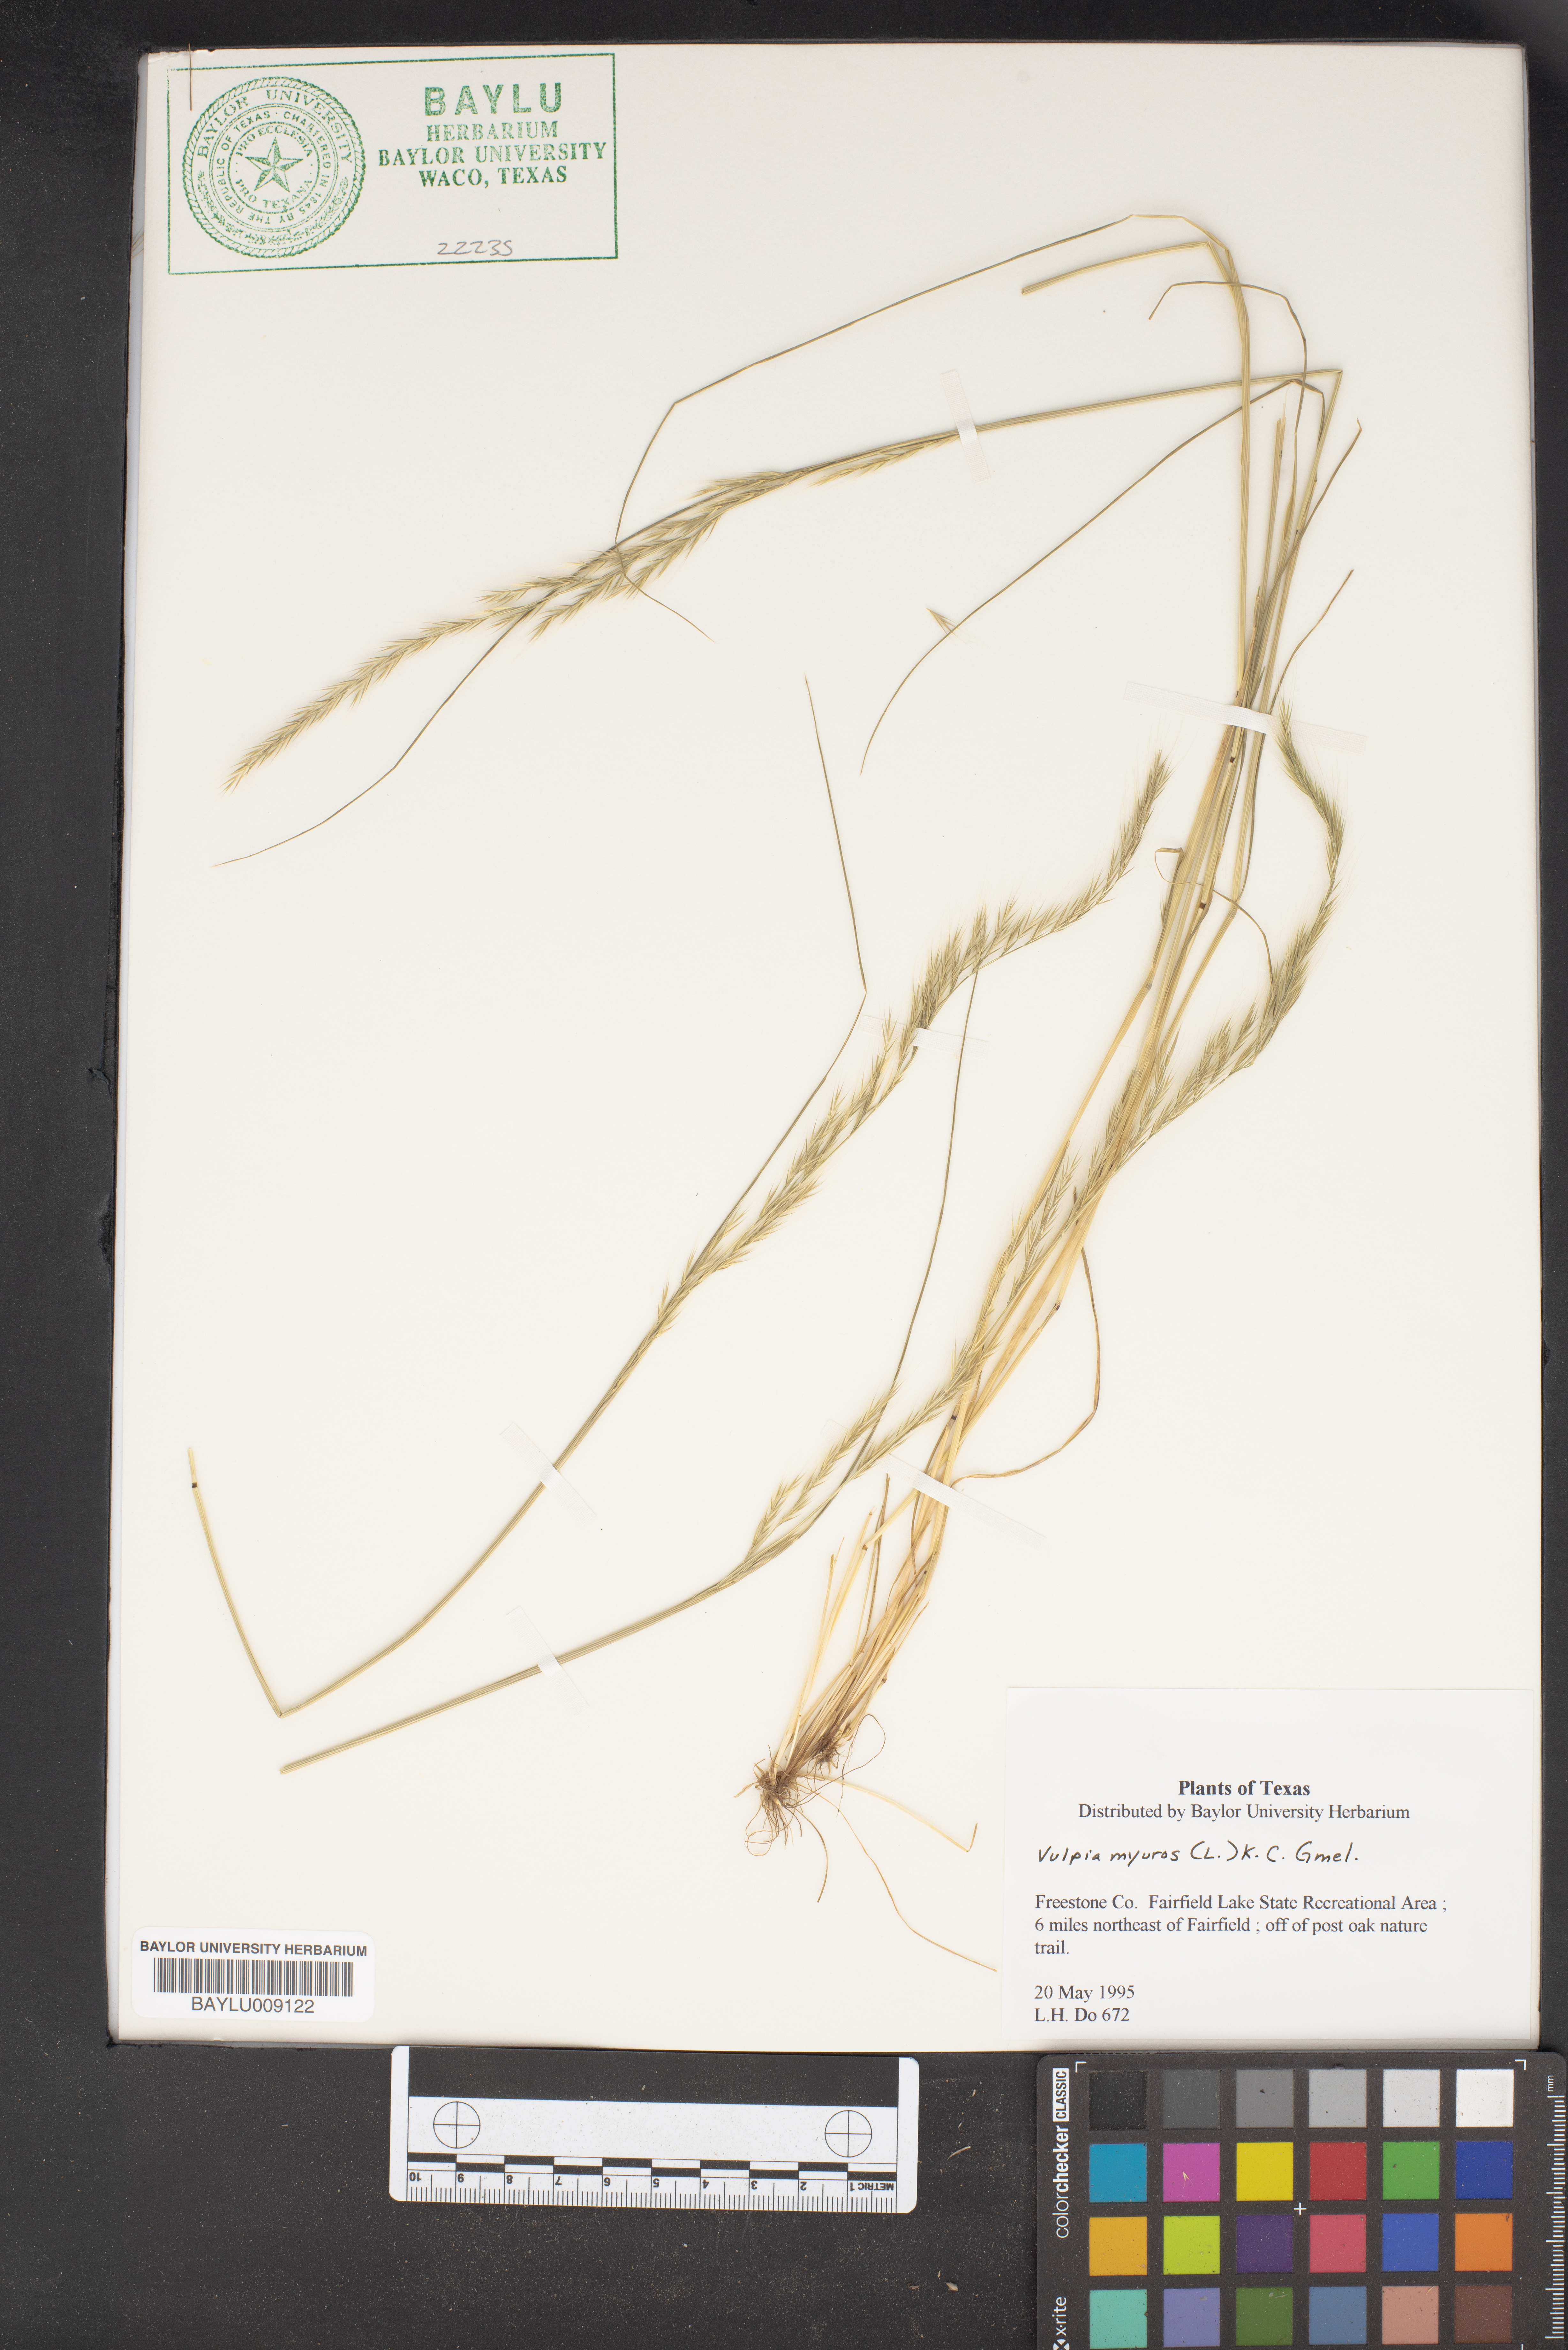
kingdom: Plantae
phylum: Tracheophyta
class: Liliopsida
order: Poales
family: Poaceae
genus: Festuca
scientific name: Festuca myuros
